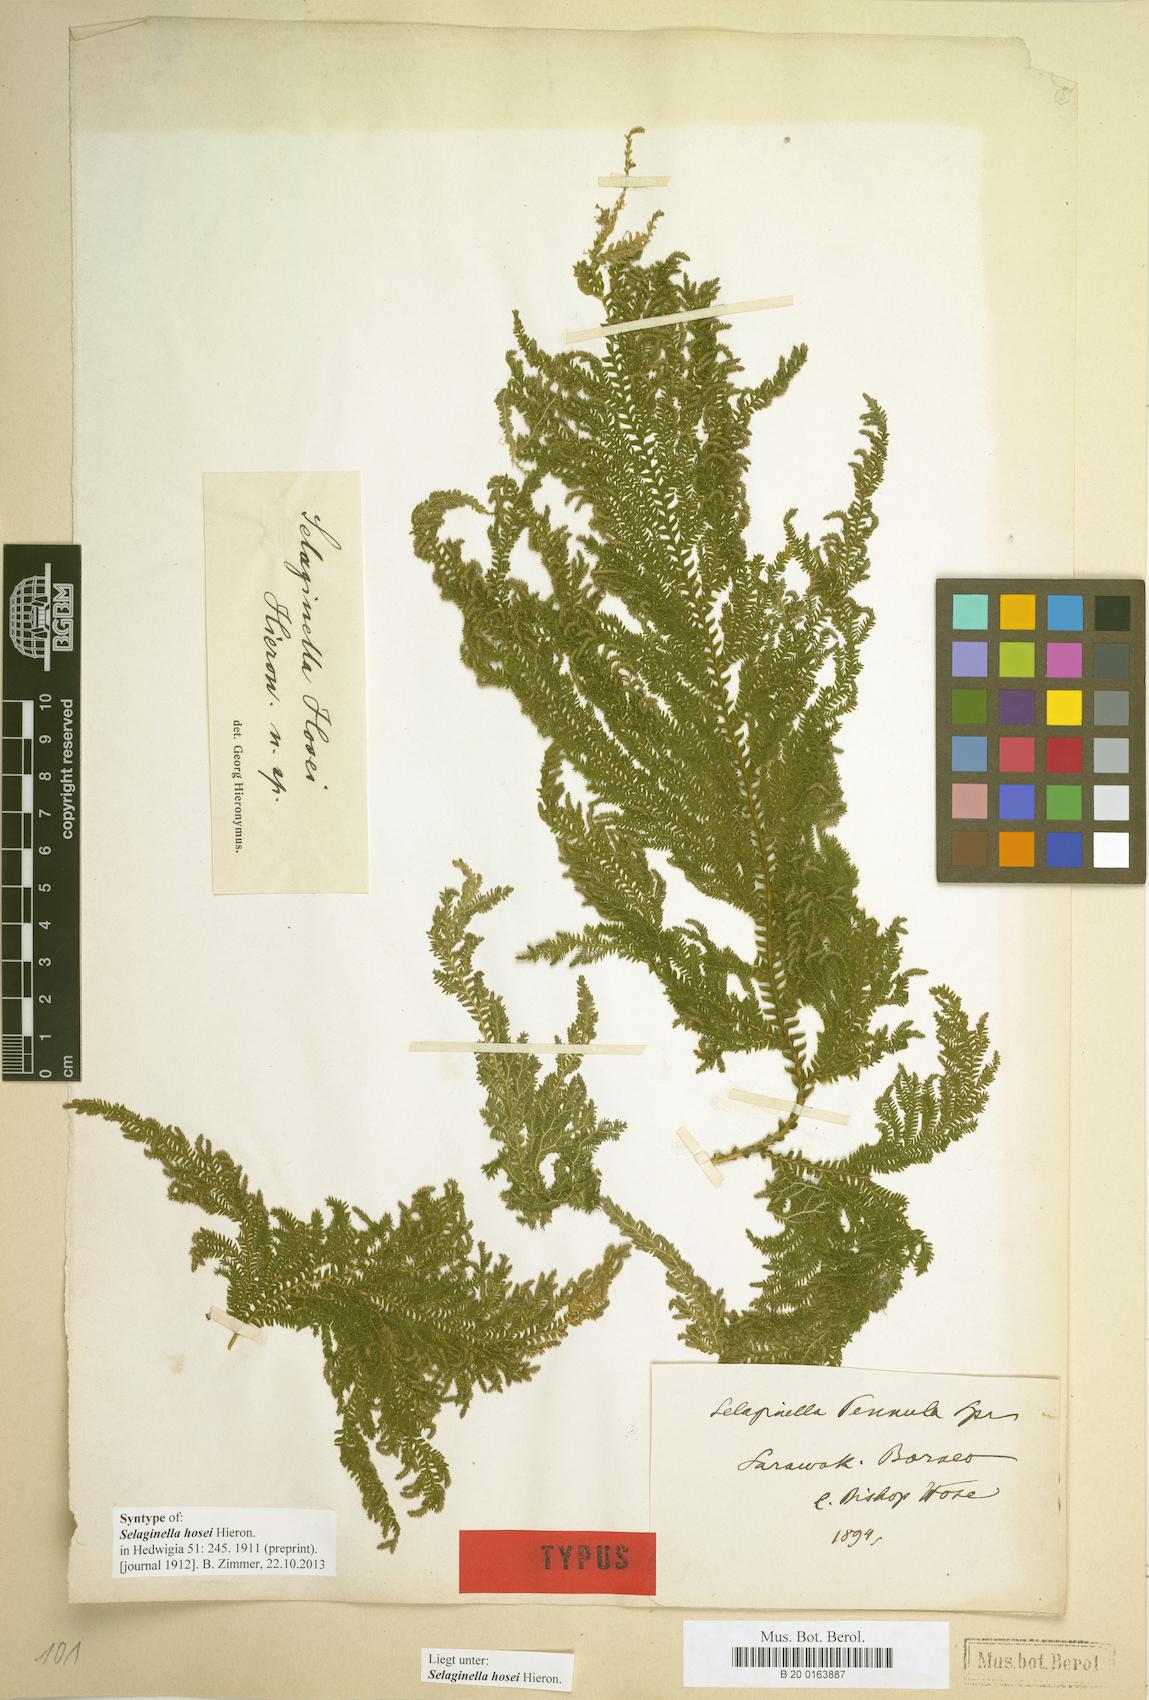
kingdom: Plantae
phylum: Tracheophyta
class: Lycopodiopsida
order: Selaginellales
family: Selaginellaceae
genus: Selaginella
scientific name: Selaginella hosei
